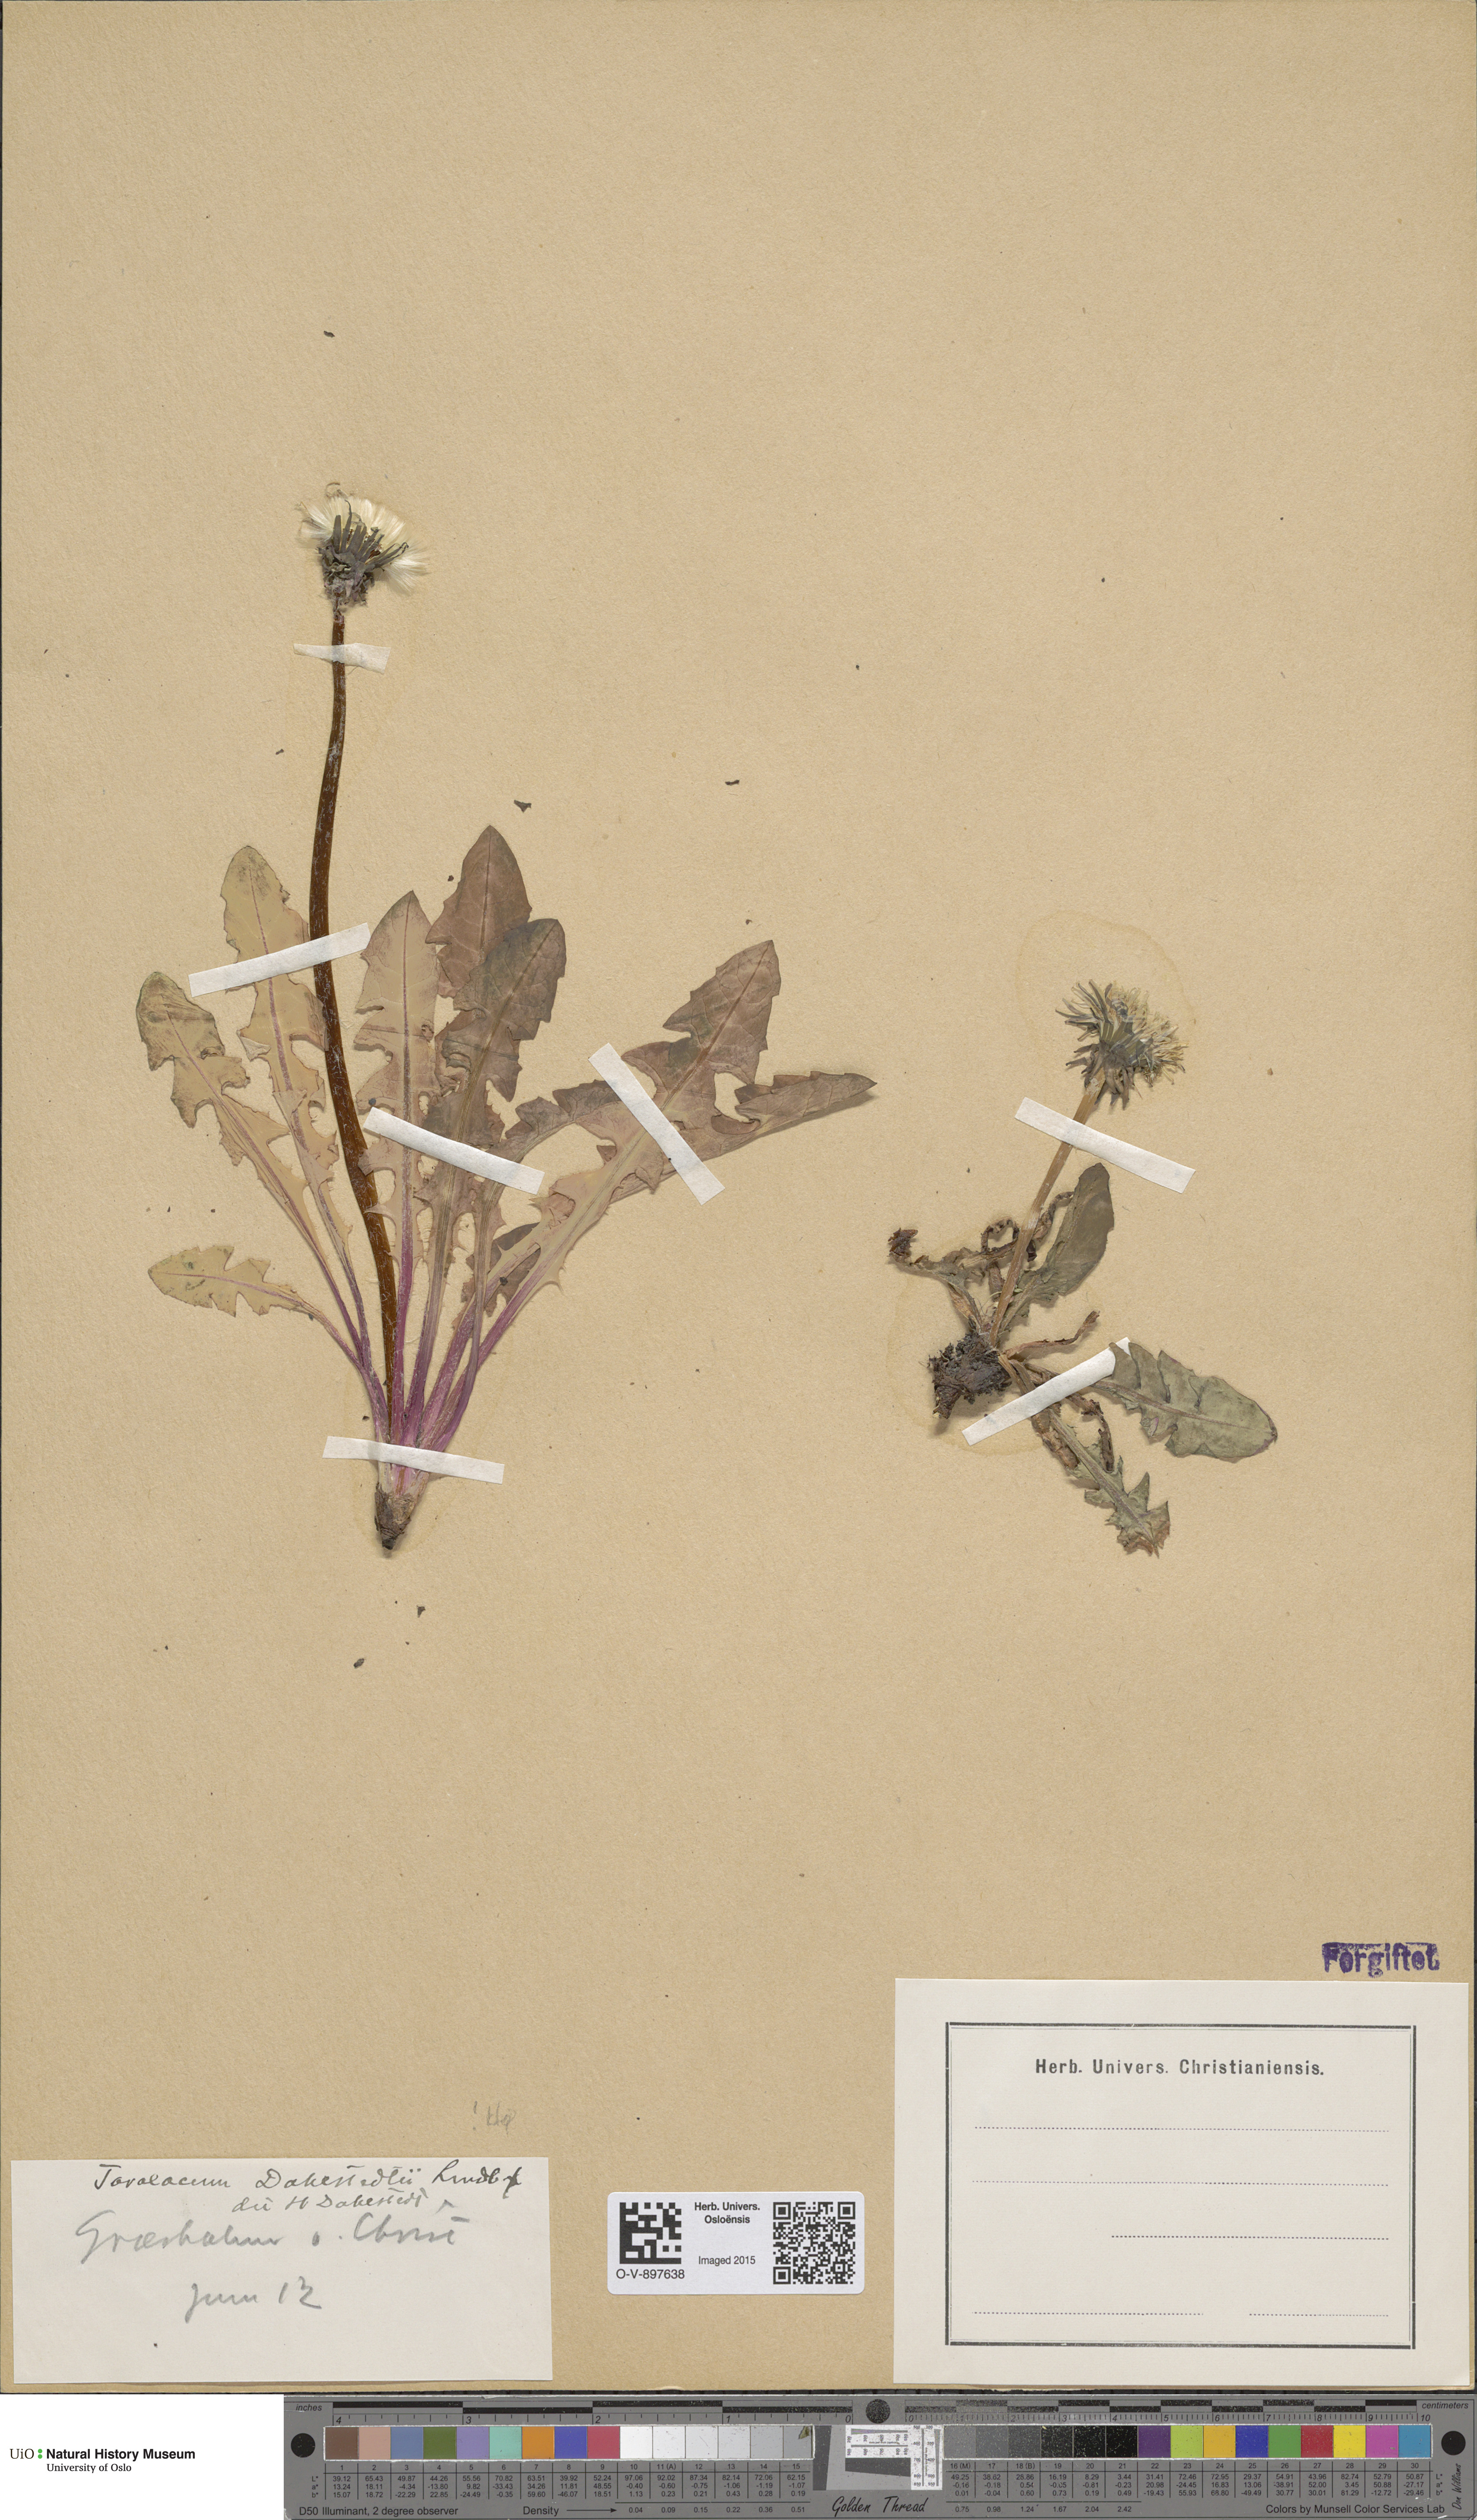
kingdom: Plantae
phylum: Tracheophyta
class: Magnoliopsida
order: Asterales
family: Asteraceae
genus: Taraxacum
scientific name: Taraxacum stenoglossum
